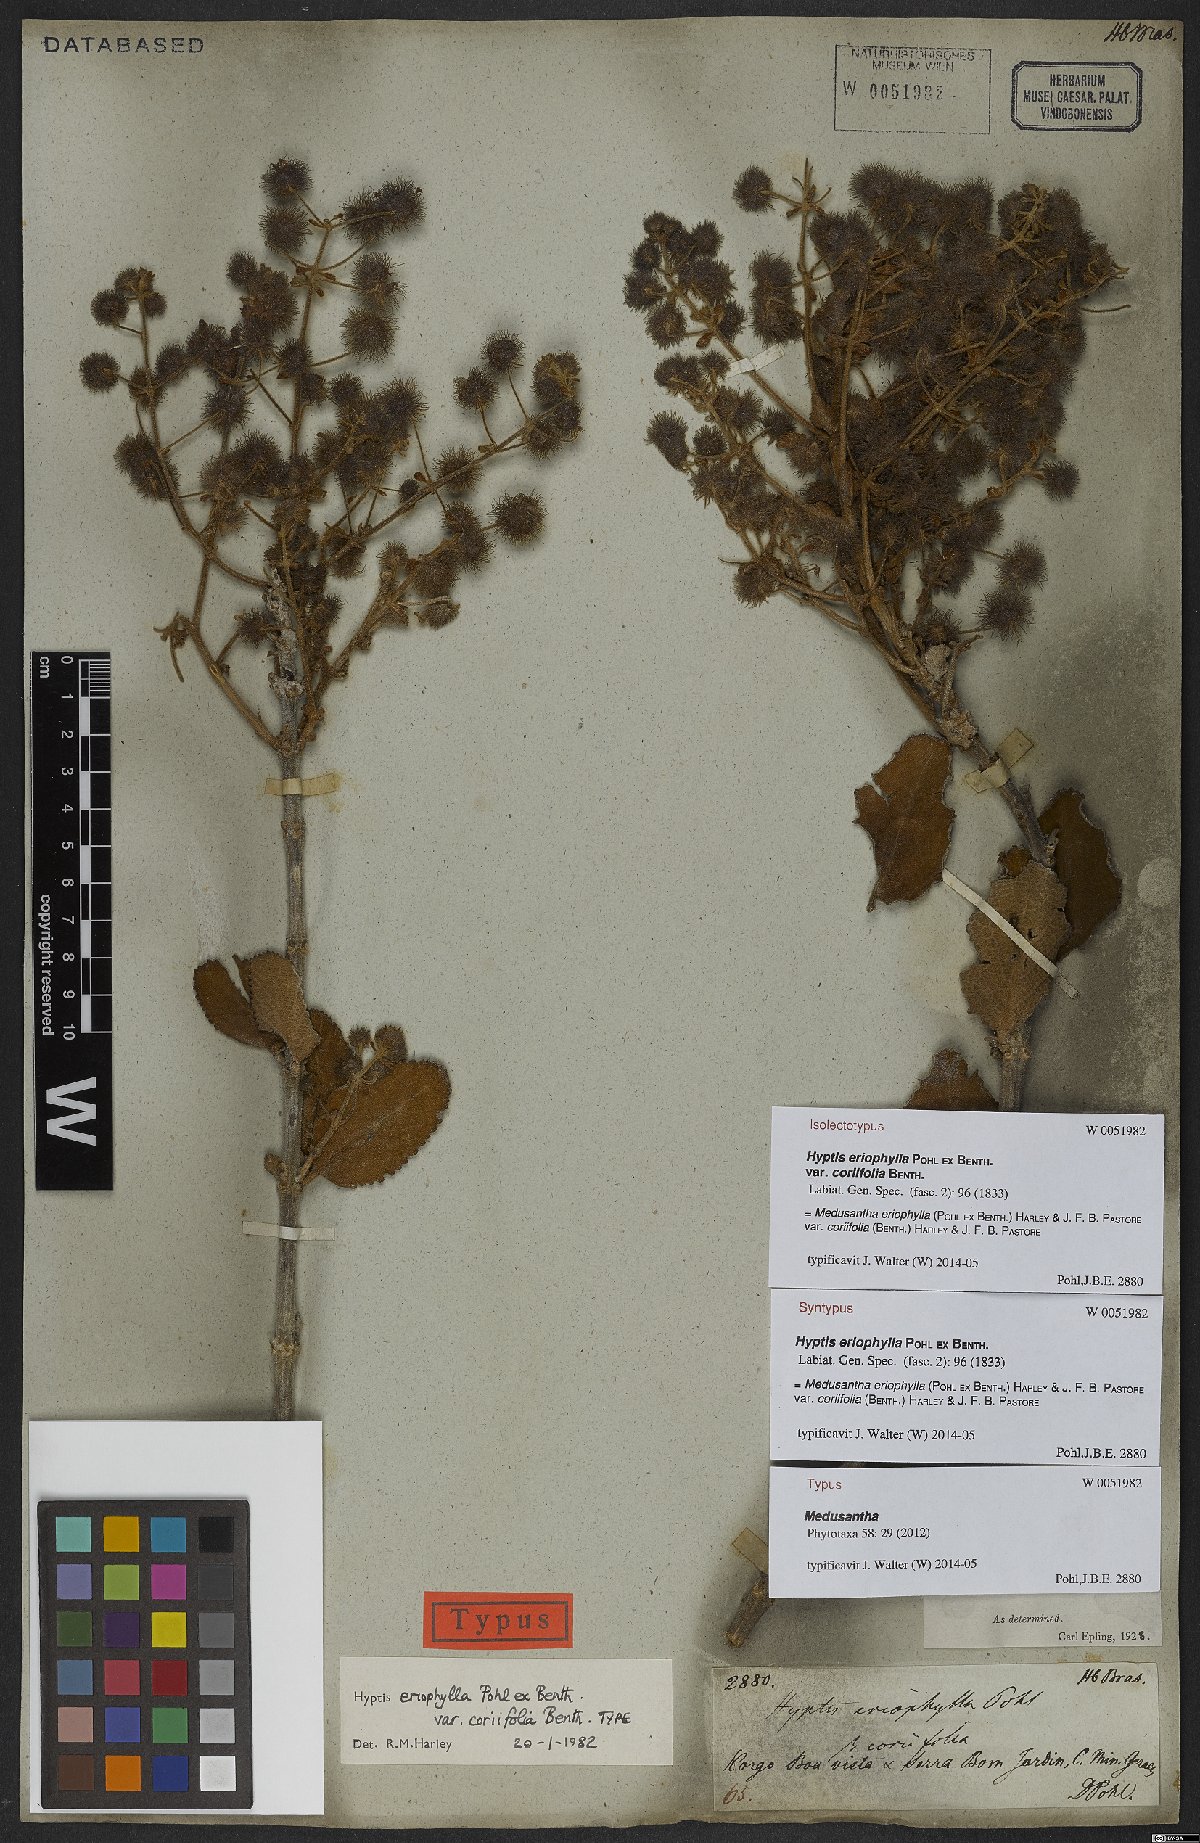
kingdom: Plantae
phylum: Tracheophyta
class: Magnoliopsida
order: Lamiales
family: Lamiaceae
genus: Medusantha
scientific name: Medusantha eriophylla
